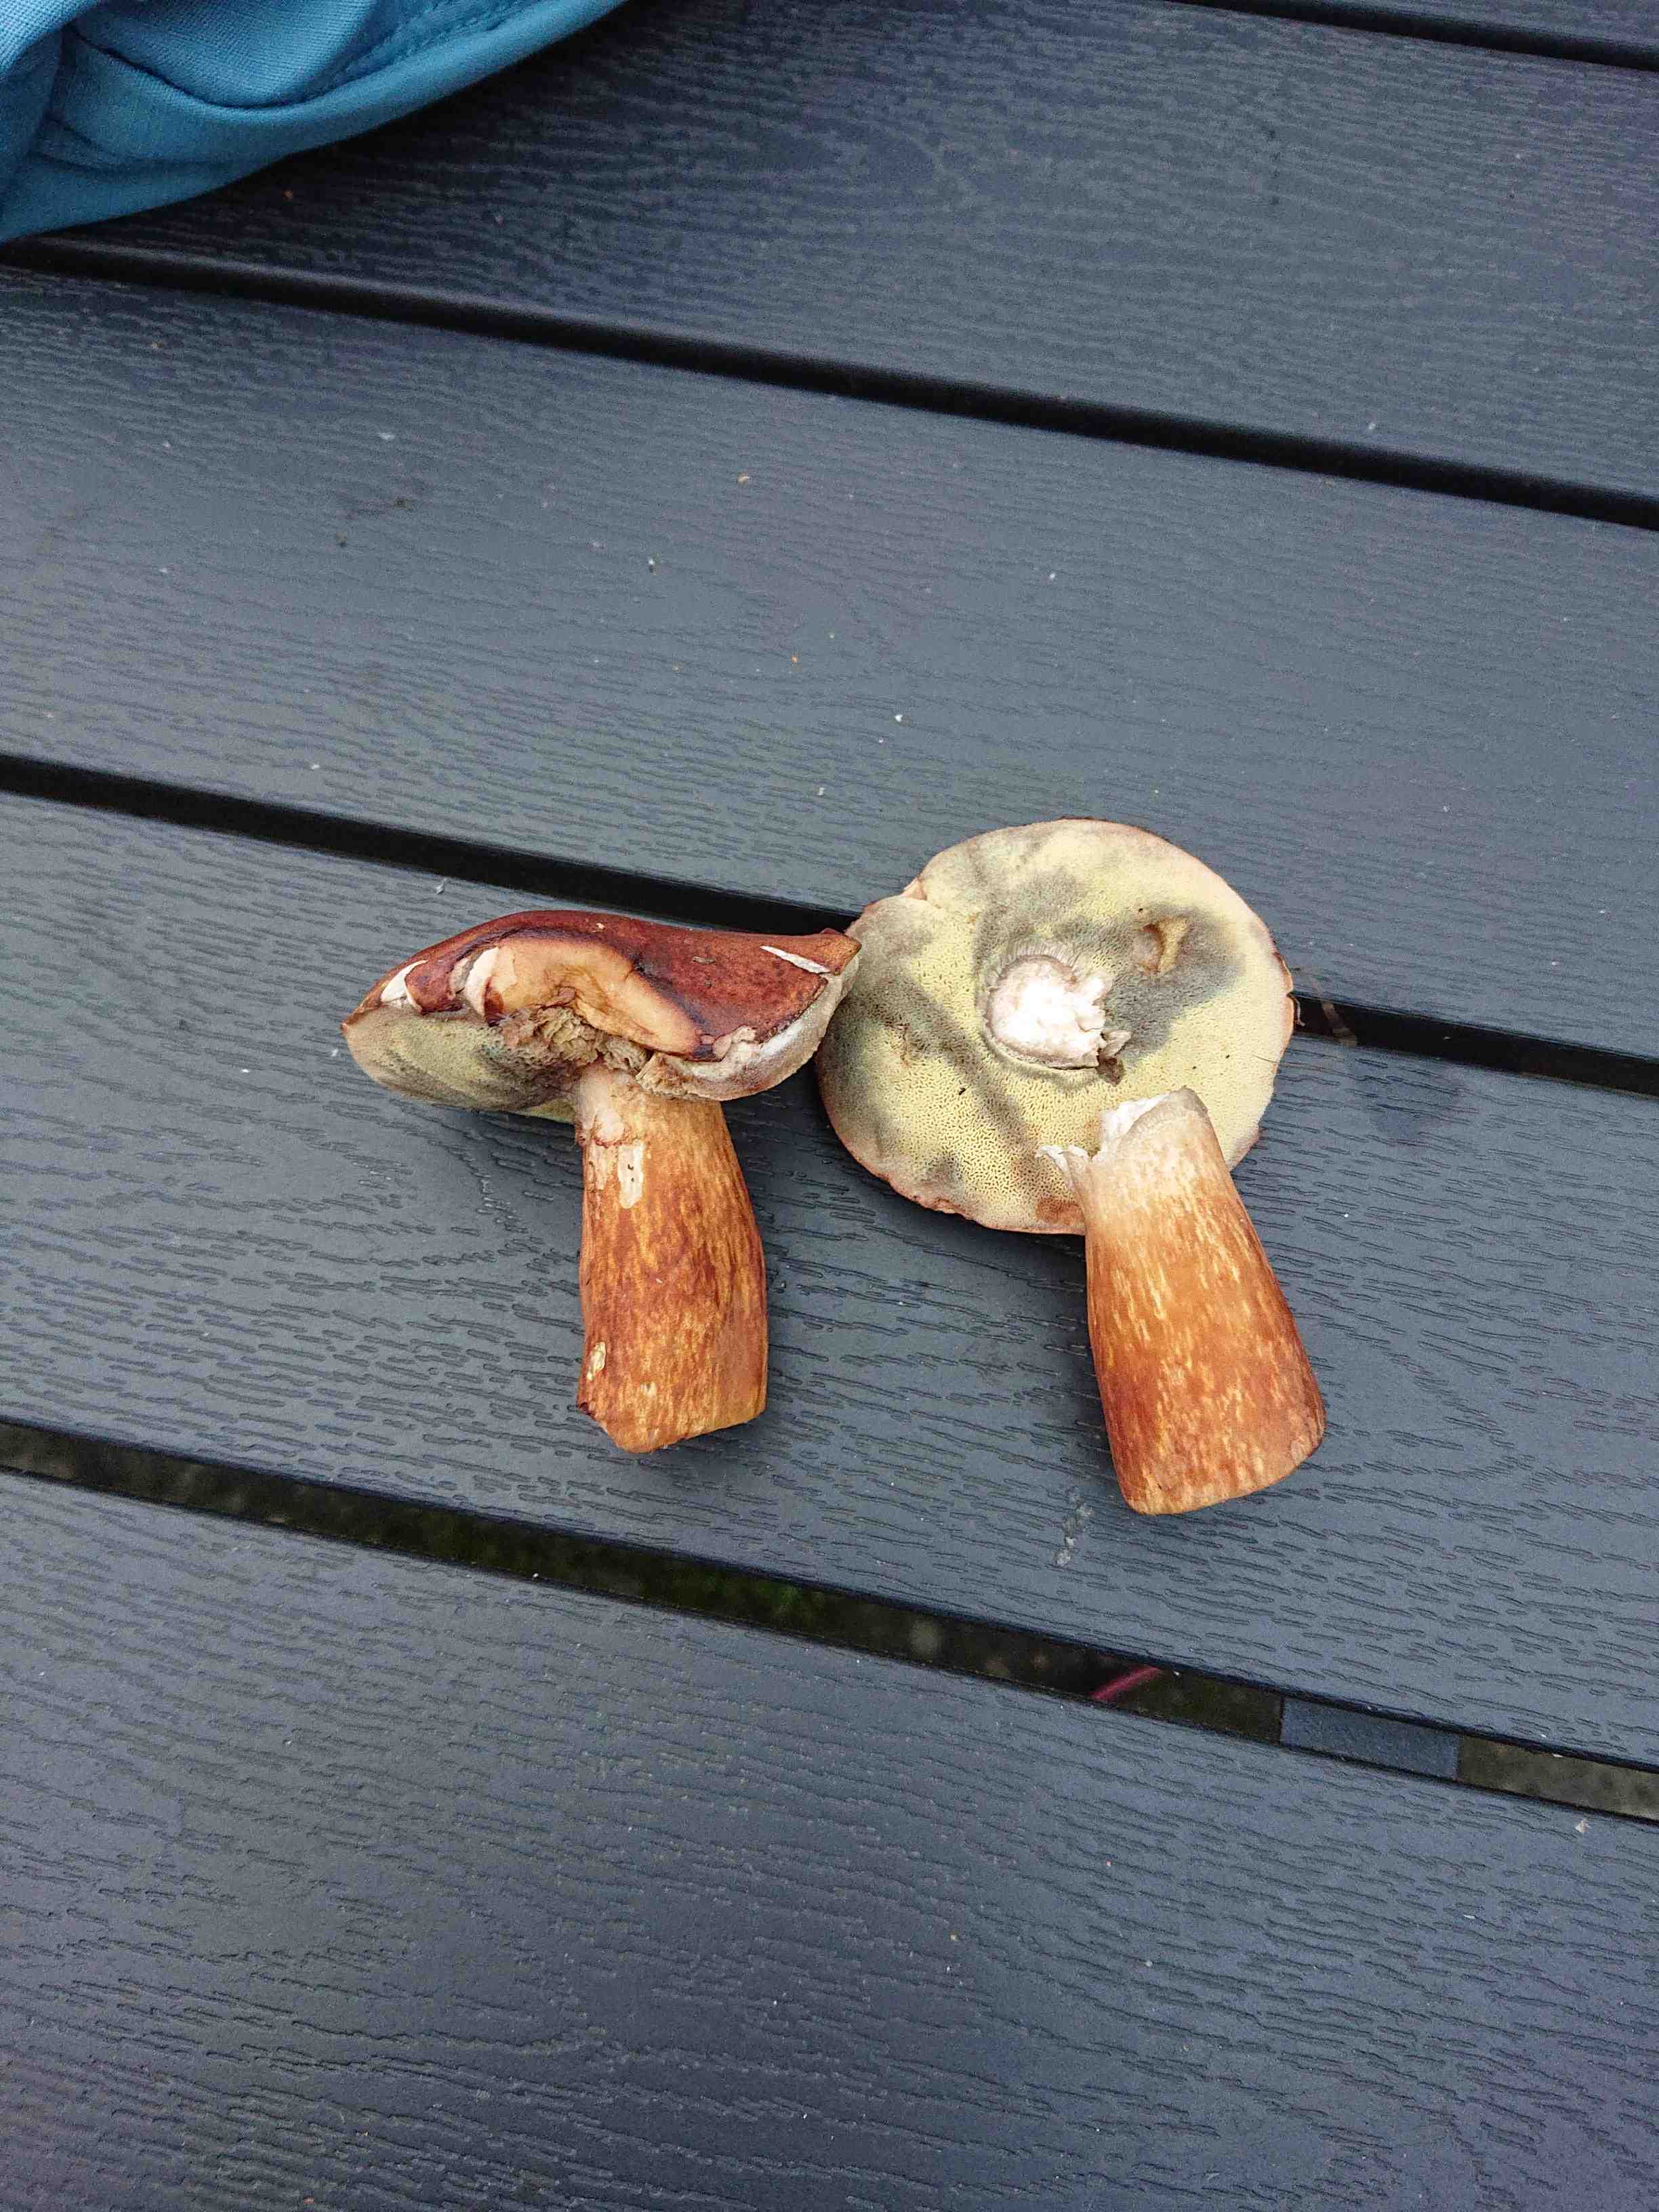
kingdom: Fungi
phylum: Basidiomycota
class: Agaricomycetes
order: Boletales
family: Boletaceae
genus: Imleria
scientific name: Imleria badia
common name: brunstokket rørhat
